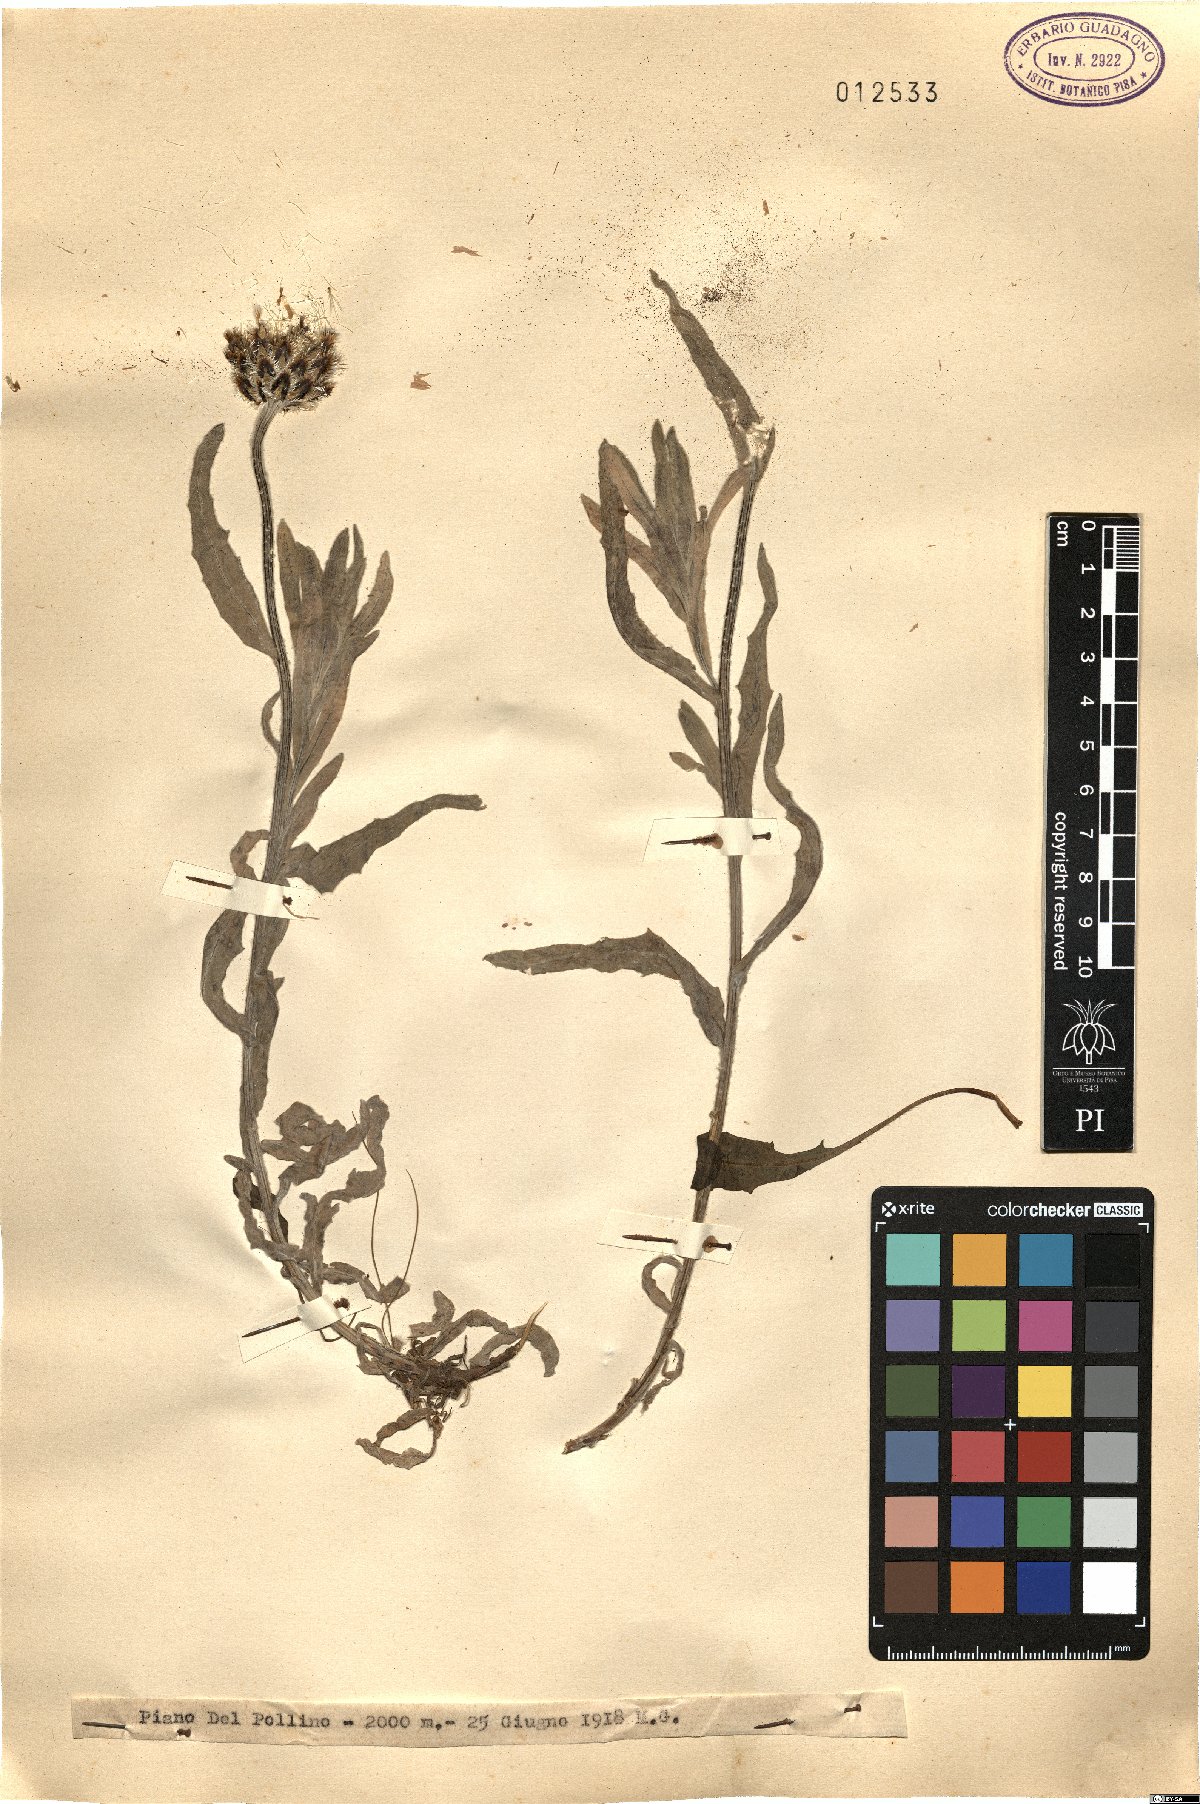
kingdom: Plantae
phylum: Tracheophyta
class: Magnoliopsida
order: Asterales
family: Asteraceae
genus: Centaurea
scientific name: Centaurea
